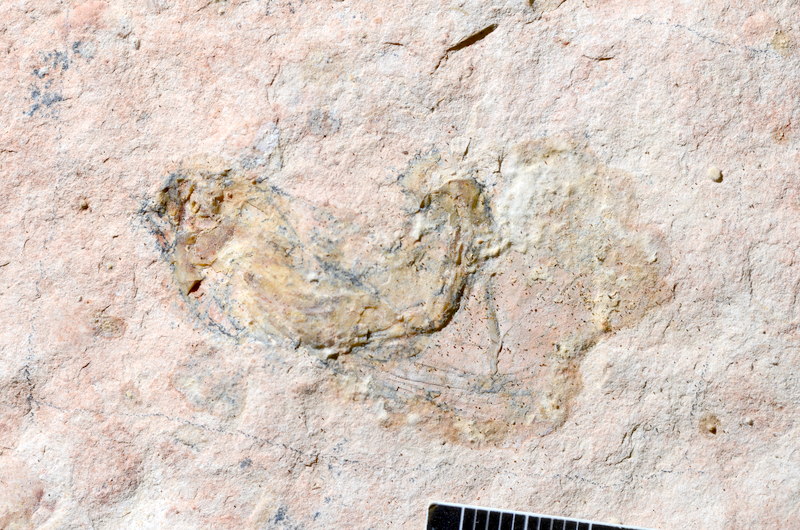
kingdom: Animalia
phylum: Chordata
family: Ascalaboidae
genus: Tharsis
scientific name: Tharsis dubius
